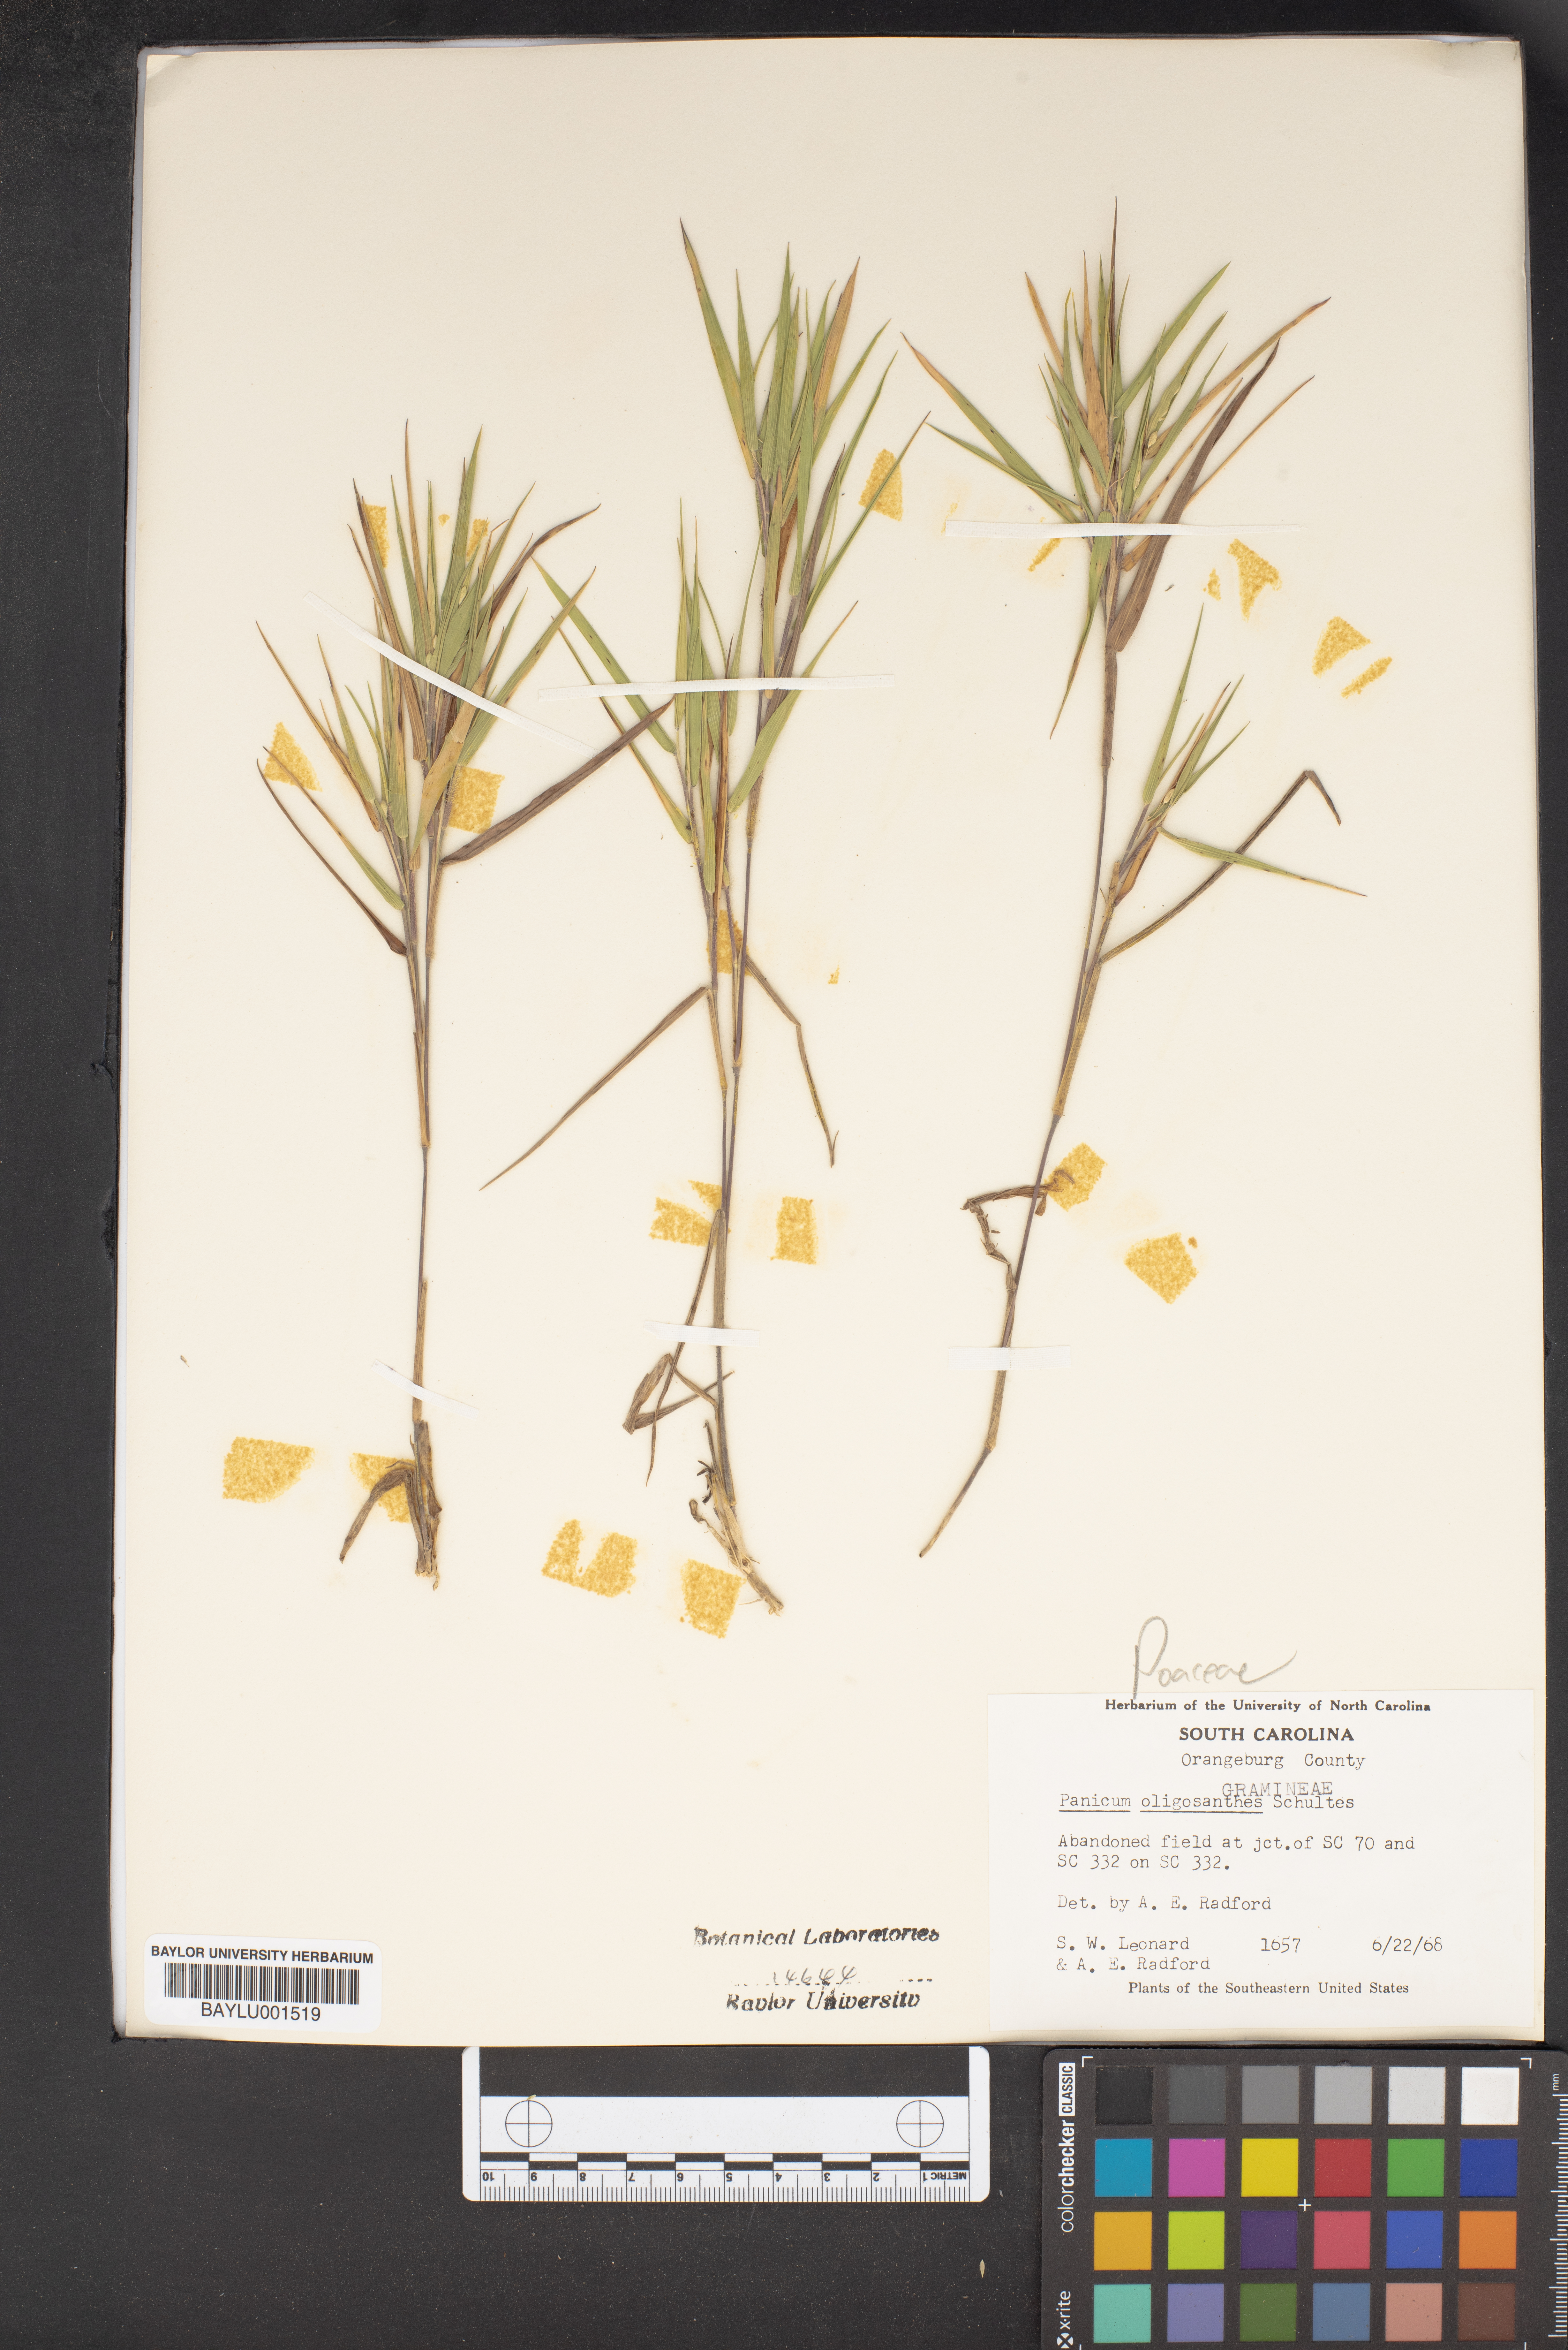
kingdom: Plantae
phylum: Tracheophyta
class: Liliopsida
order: Poales
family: Poaceae
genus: Dichanthelium
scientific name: Dichanthelium oligosanthes
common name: Few-anther obscuregrass
